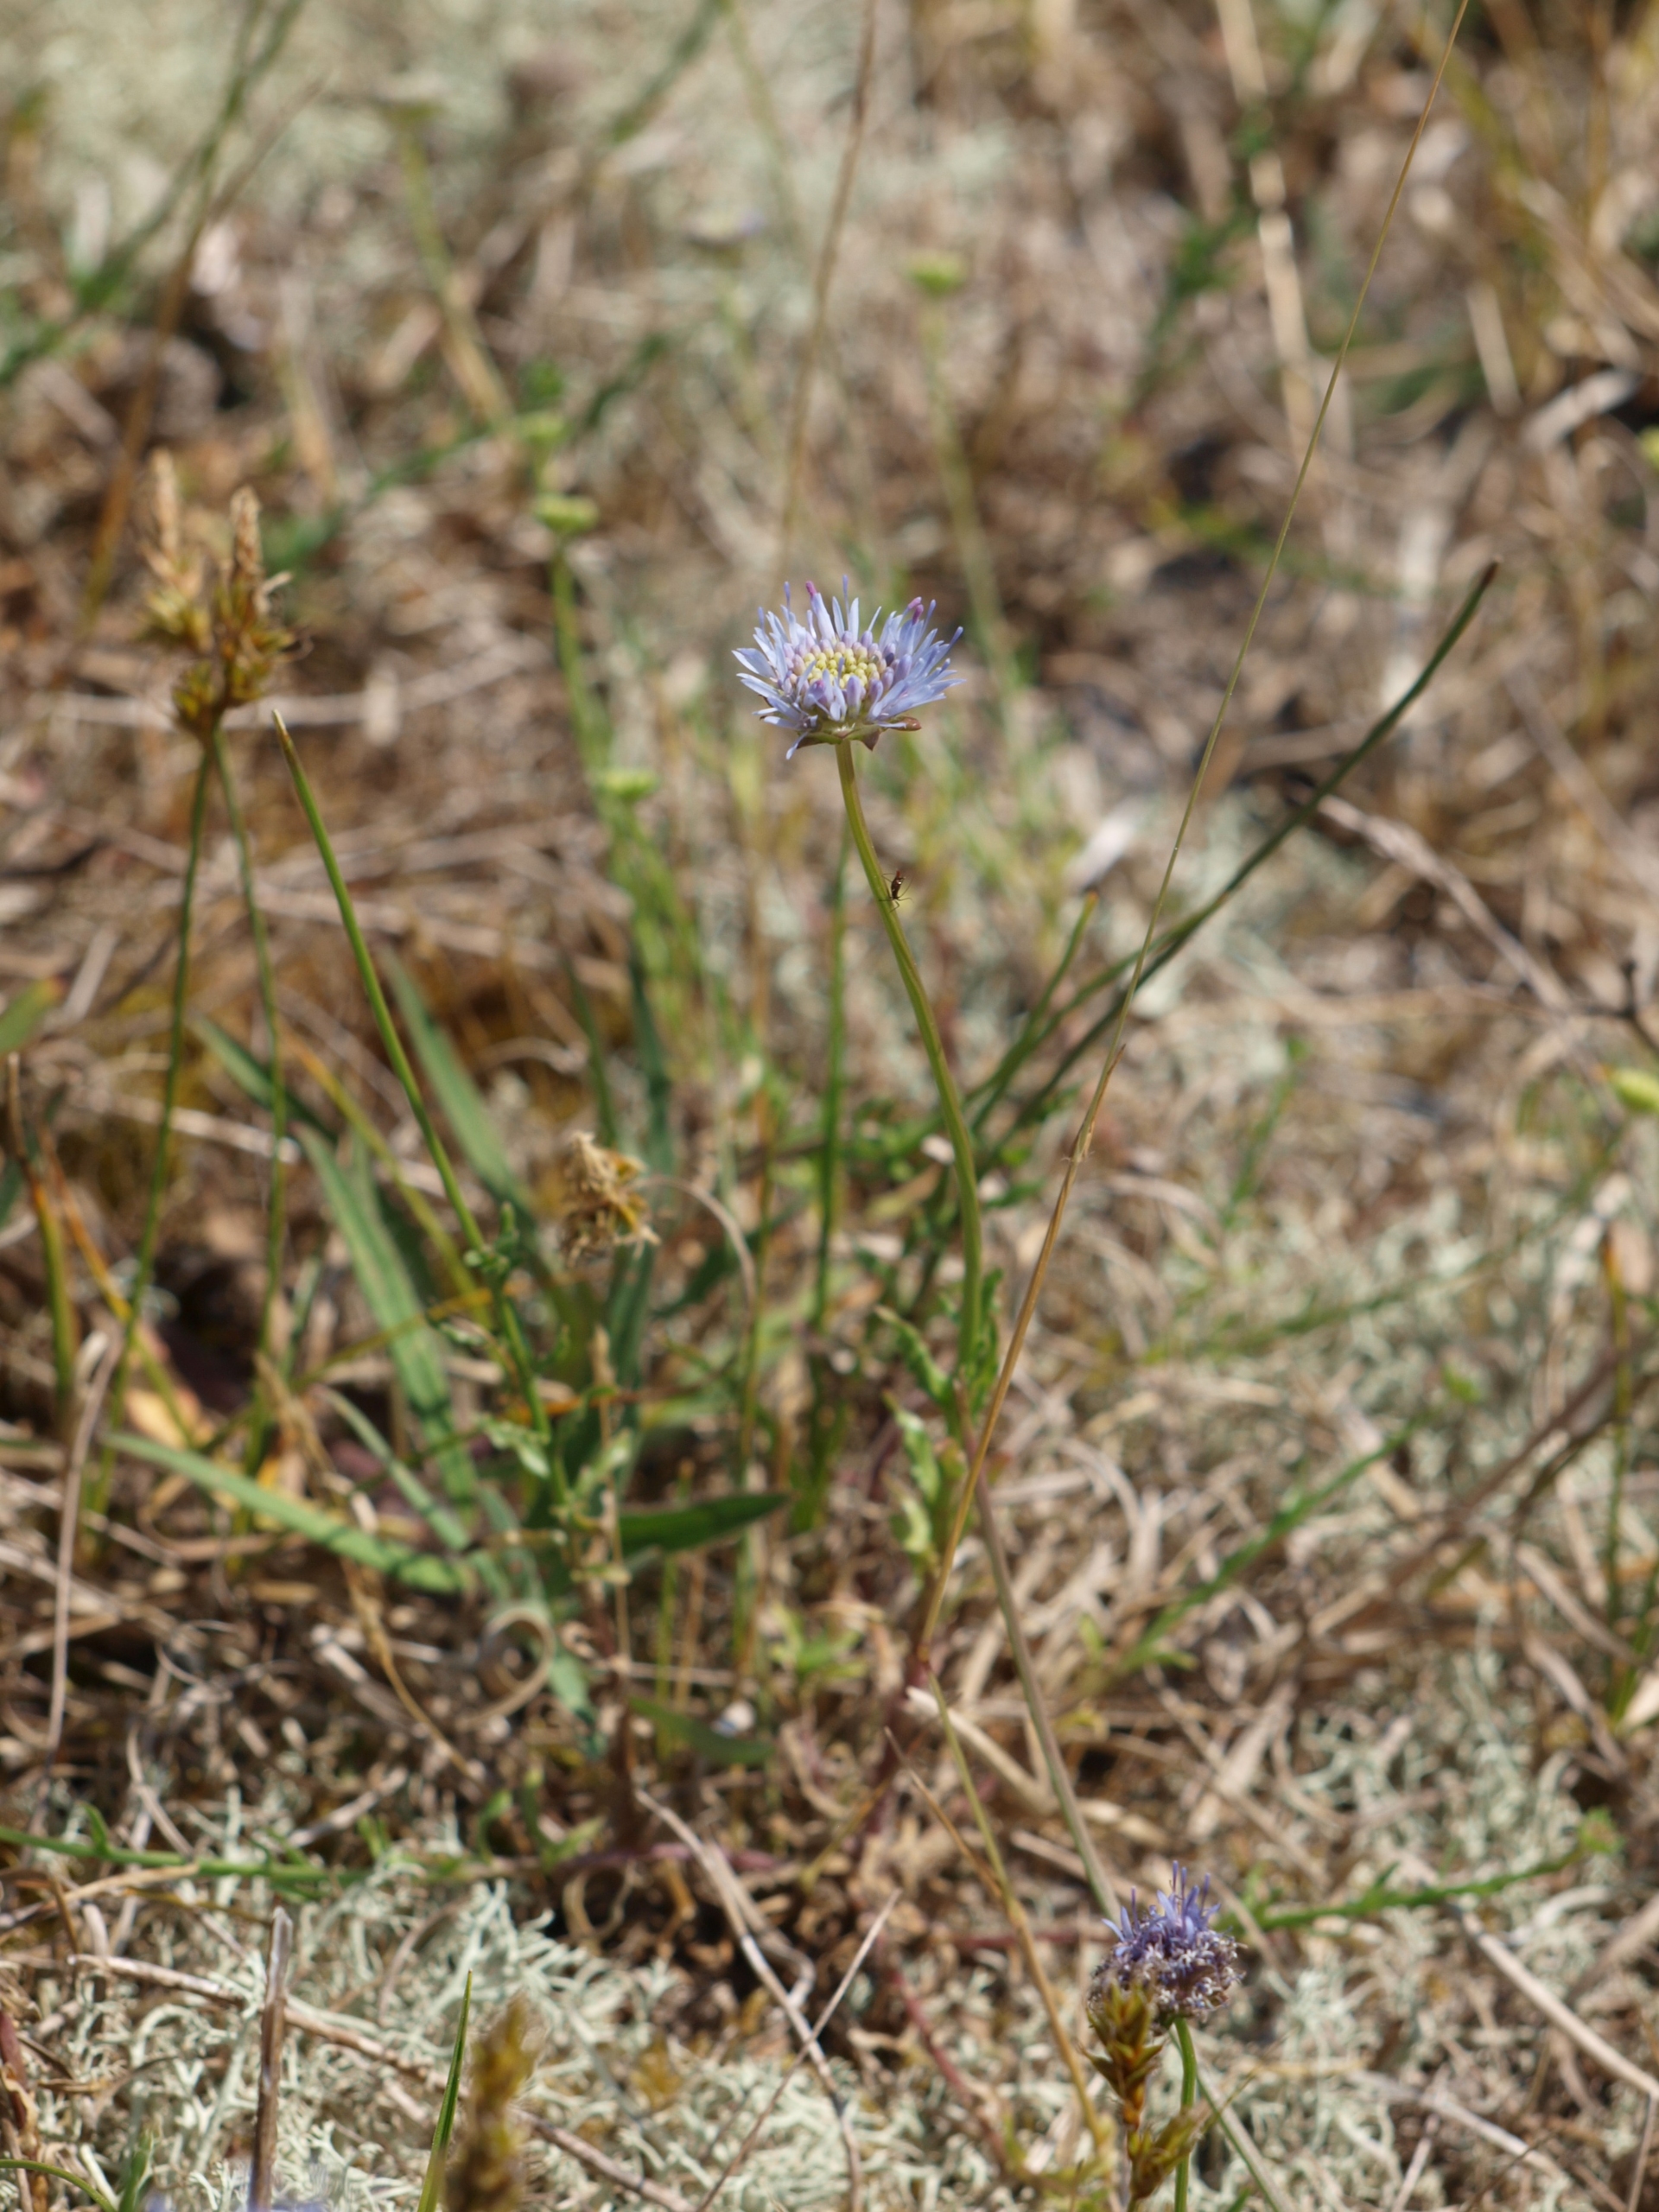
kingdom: Plantae
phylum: Tracheophyta
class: Magnoliopsida
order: Asterales
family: Campanulaceae
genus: Jasione
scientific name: Jasione montana
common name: Blåmunke
